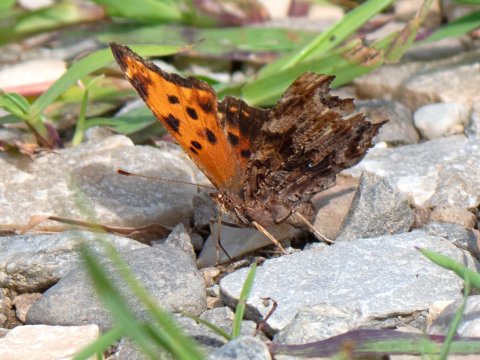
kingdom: Animalia
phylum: Arthropoda
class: Insecta
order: Lepidoptera
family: Nymphalidae
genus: Polygonia
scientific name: Polygonia comma
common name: Eastern Comma
